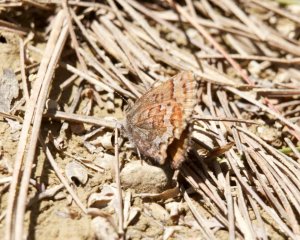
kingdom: Animalia
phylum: Arthropoda
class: Insecta
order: Lepidoptera
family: Lycaenidae
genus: Incisalia
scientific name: Incisalia niphon
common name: Eastern Pine Elfin
